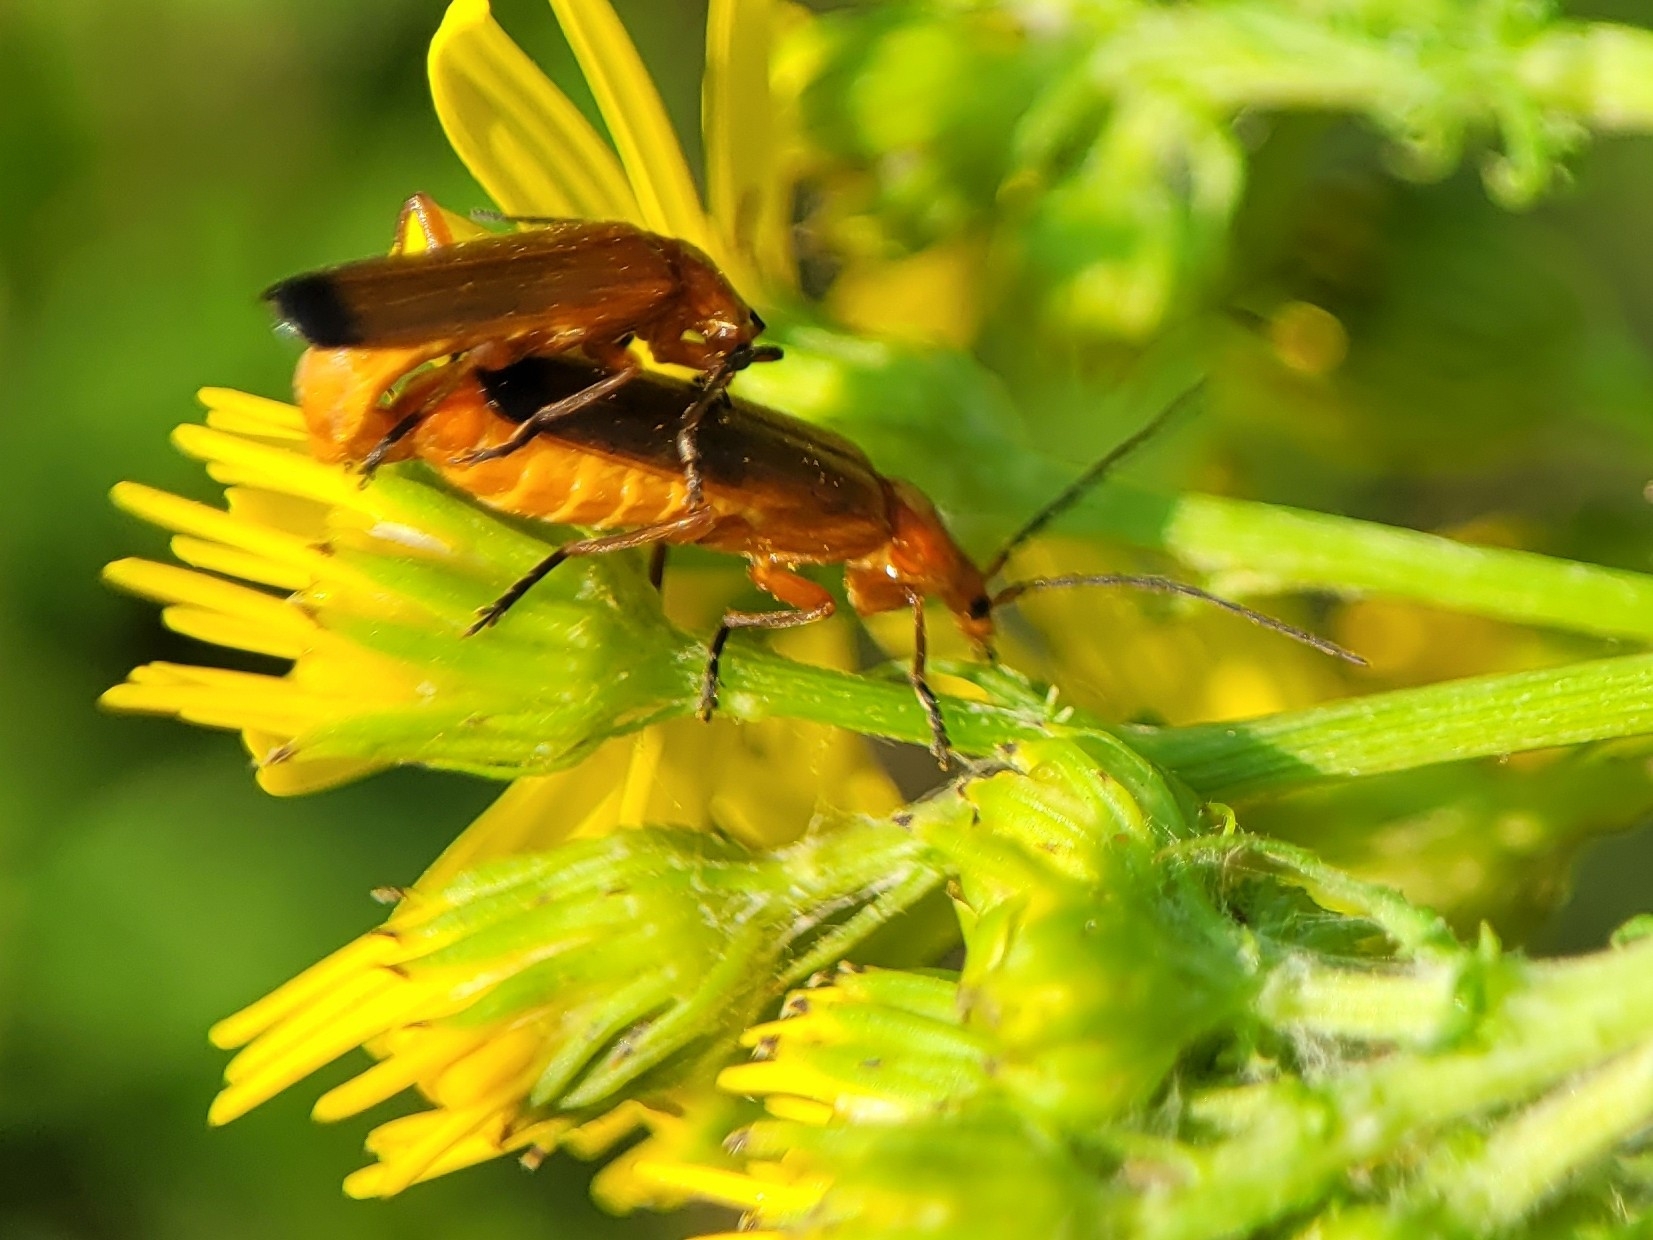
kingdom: Animalia
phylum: Arthropoda
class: Insecta
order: Coleoptera
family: Cantharidae
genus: Rhagonycha
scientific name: Rhagonycha fulva
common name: Præstebille
